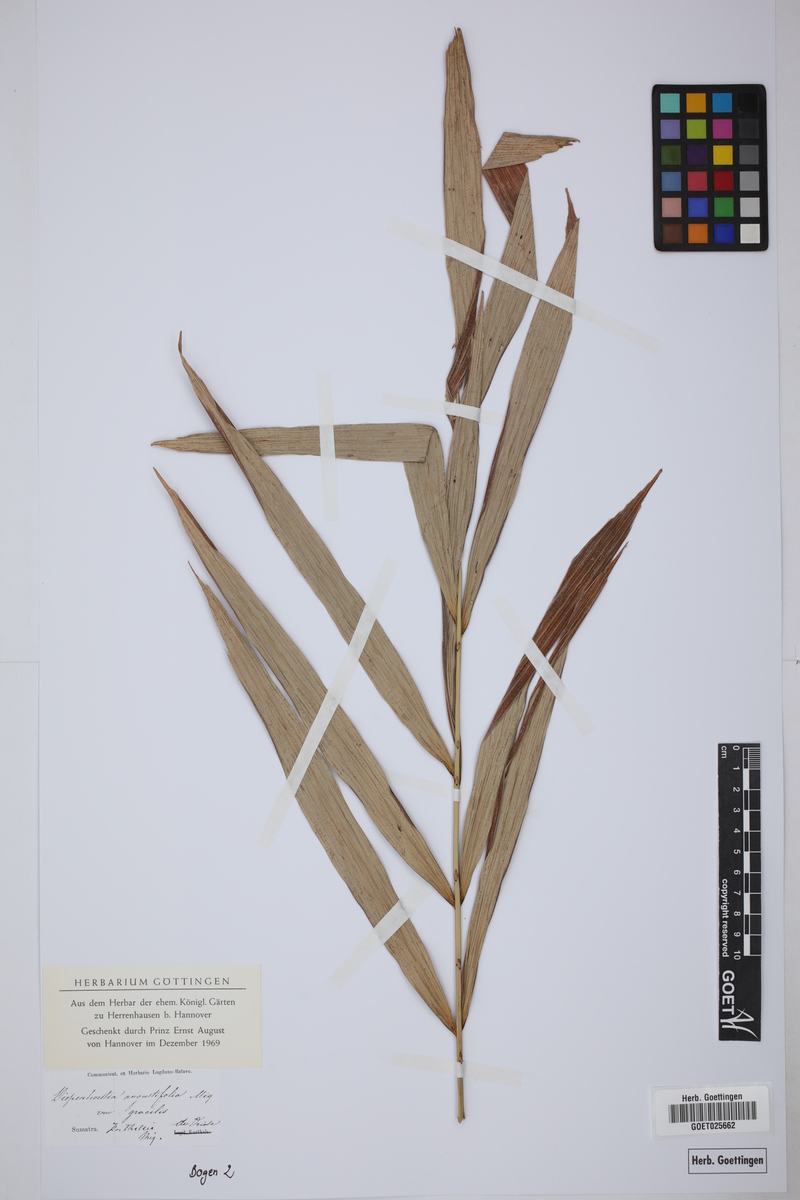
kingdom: Plantae
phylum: Tracheophyta
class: Liliopsida
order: Arecales
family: Arecaceae
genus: Korthalsia
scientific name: Korthalsia echinometra
